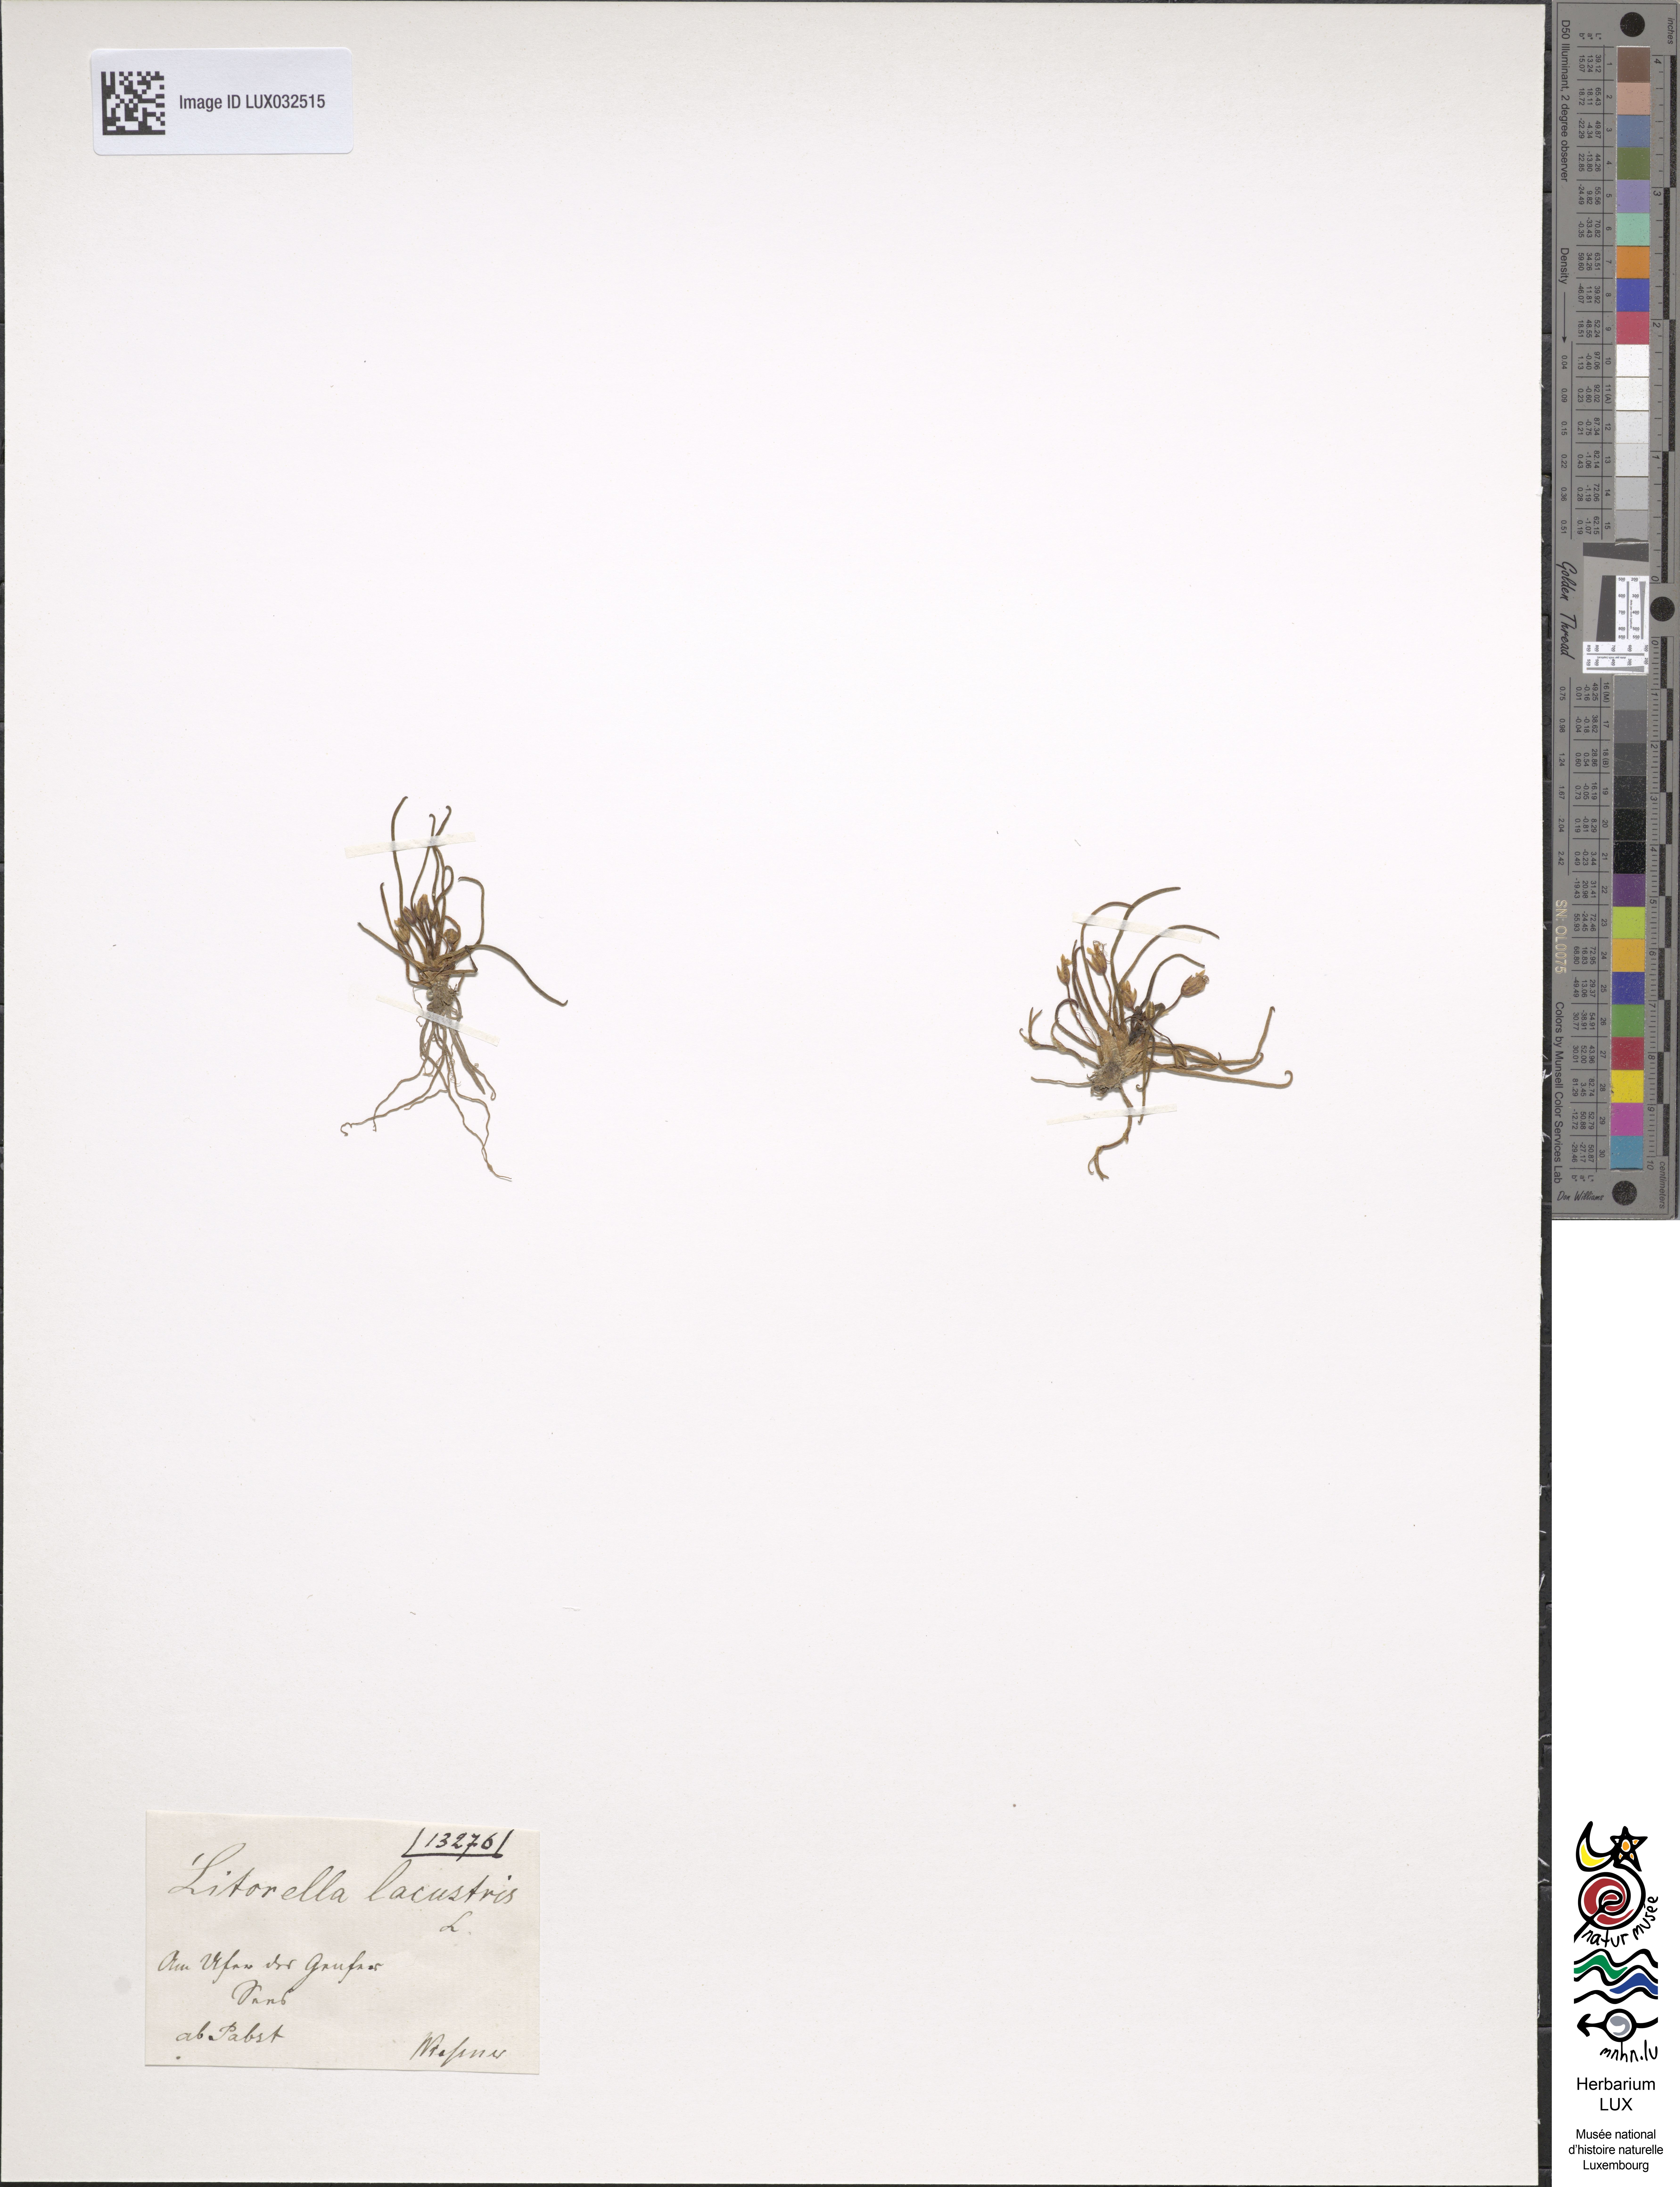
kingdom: Plantae
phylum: Tracheophyta
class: Magnoliopsida
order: Lamiales
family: Plantaginaceae
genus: Littorella
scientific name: Littorella uniflora
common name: Shoreweed
